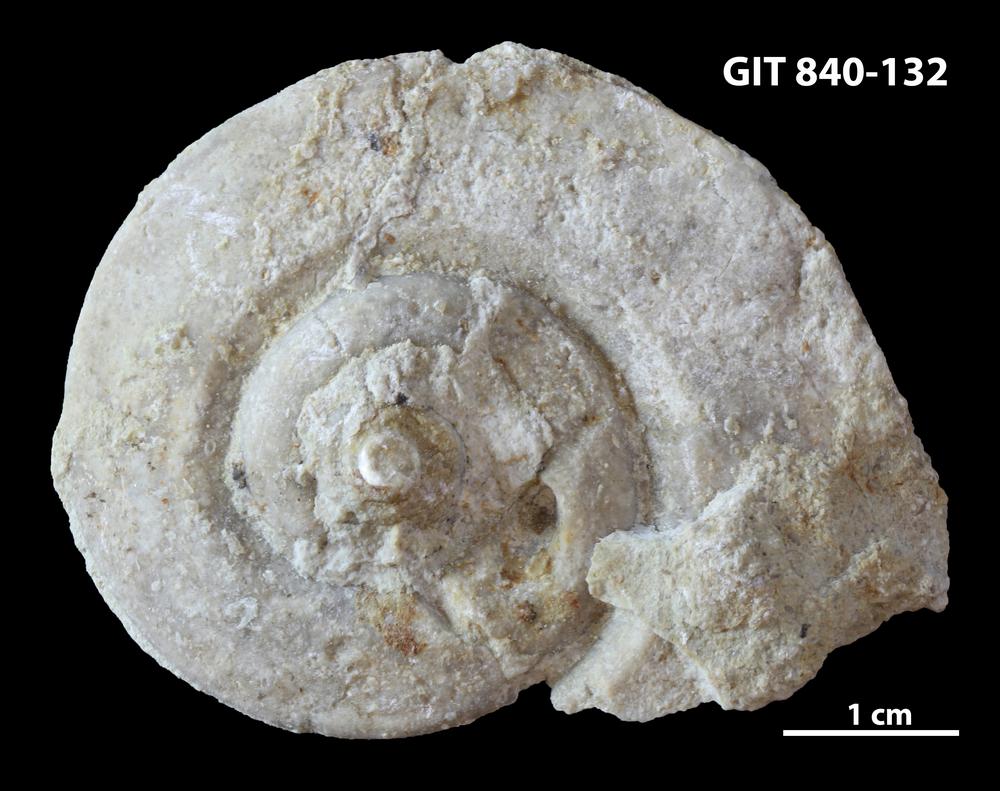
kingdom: Animalia
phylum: Mollusca
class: Gastropoda
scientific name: Gastropoda
